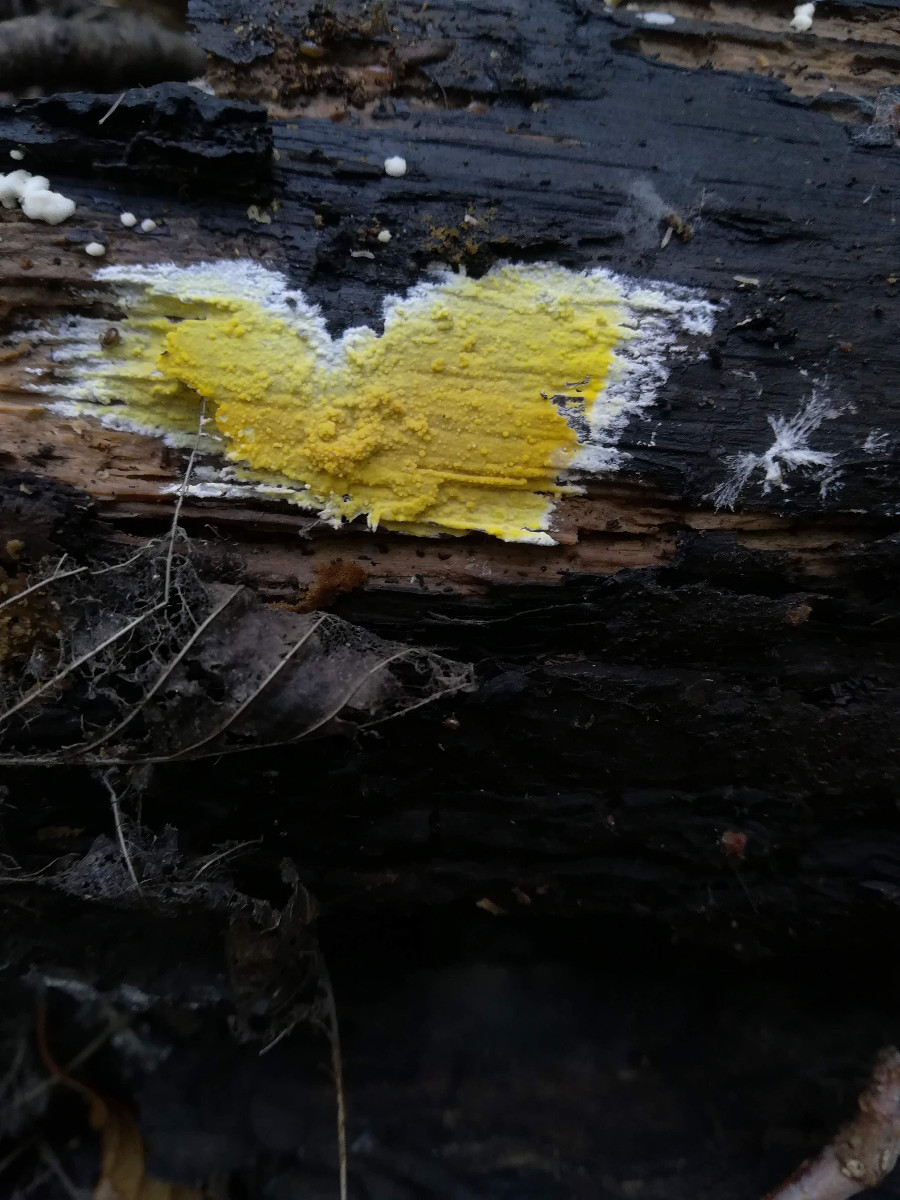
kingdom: Fungi
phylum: Basidiomycota
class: Agaricomycetes
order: Polyporales
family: Meruliaceae
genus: Phlebiodontia
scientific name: Phlebiodontia subochracea
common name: svovl-åresvamp
